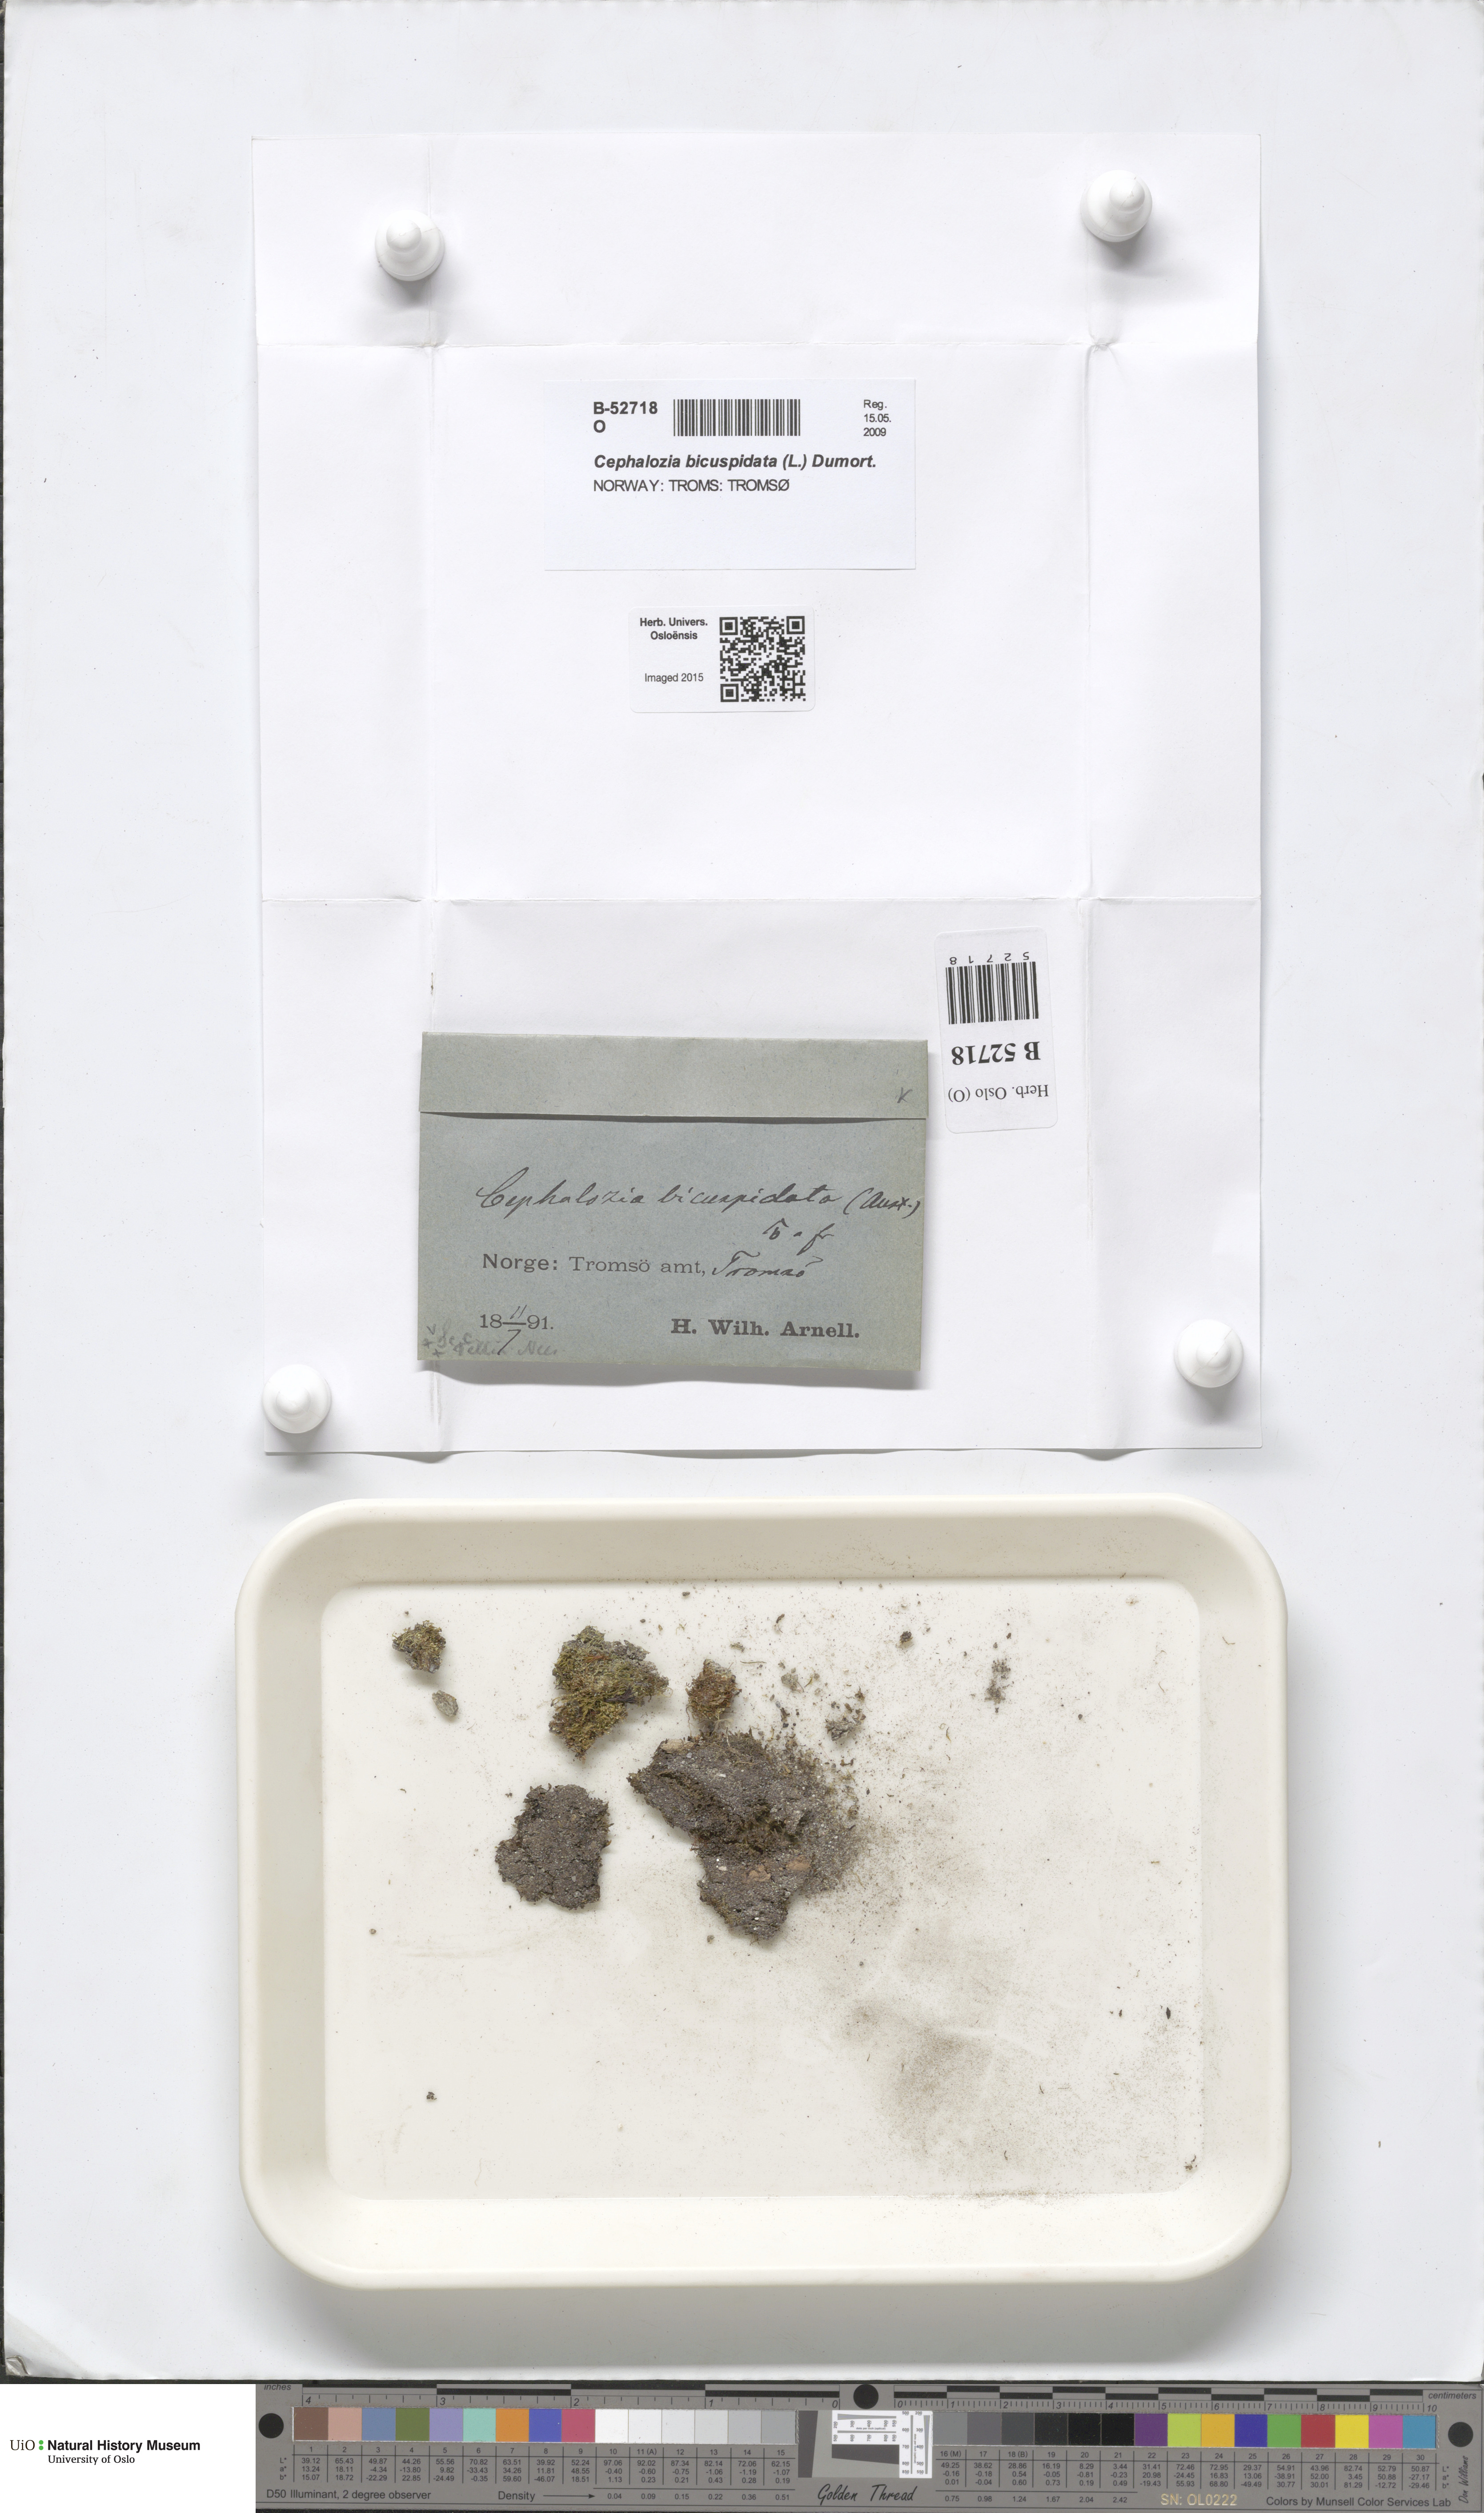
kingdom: Plantae
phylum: Marchantiophyta
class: Jungermanniopsida
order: Jungermanniales
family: Cephaloziaceae
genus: Cephalozia
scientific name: Cephalozia bicuspidata
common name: Two-horned pincerwort
